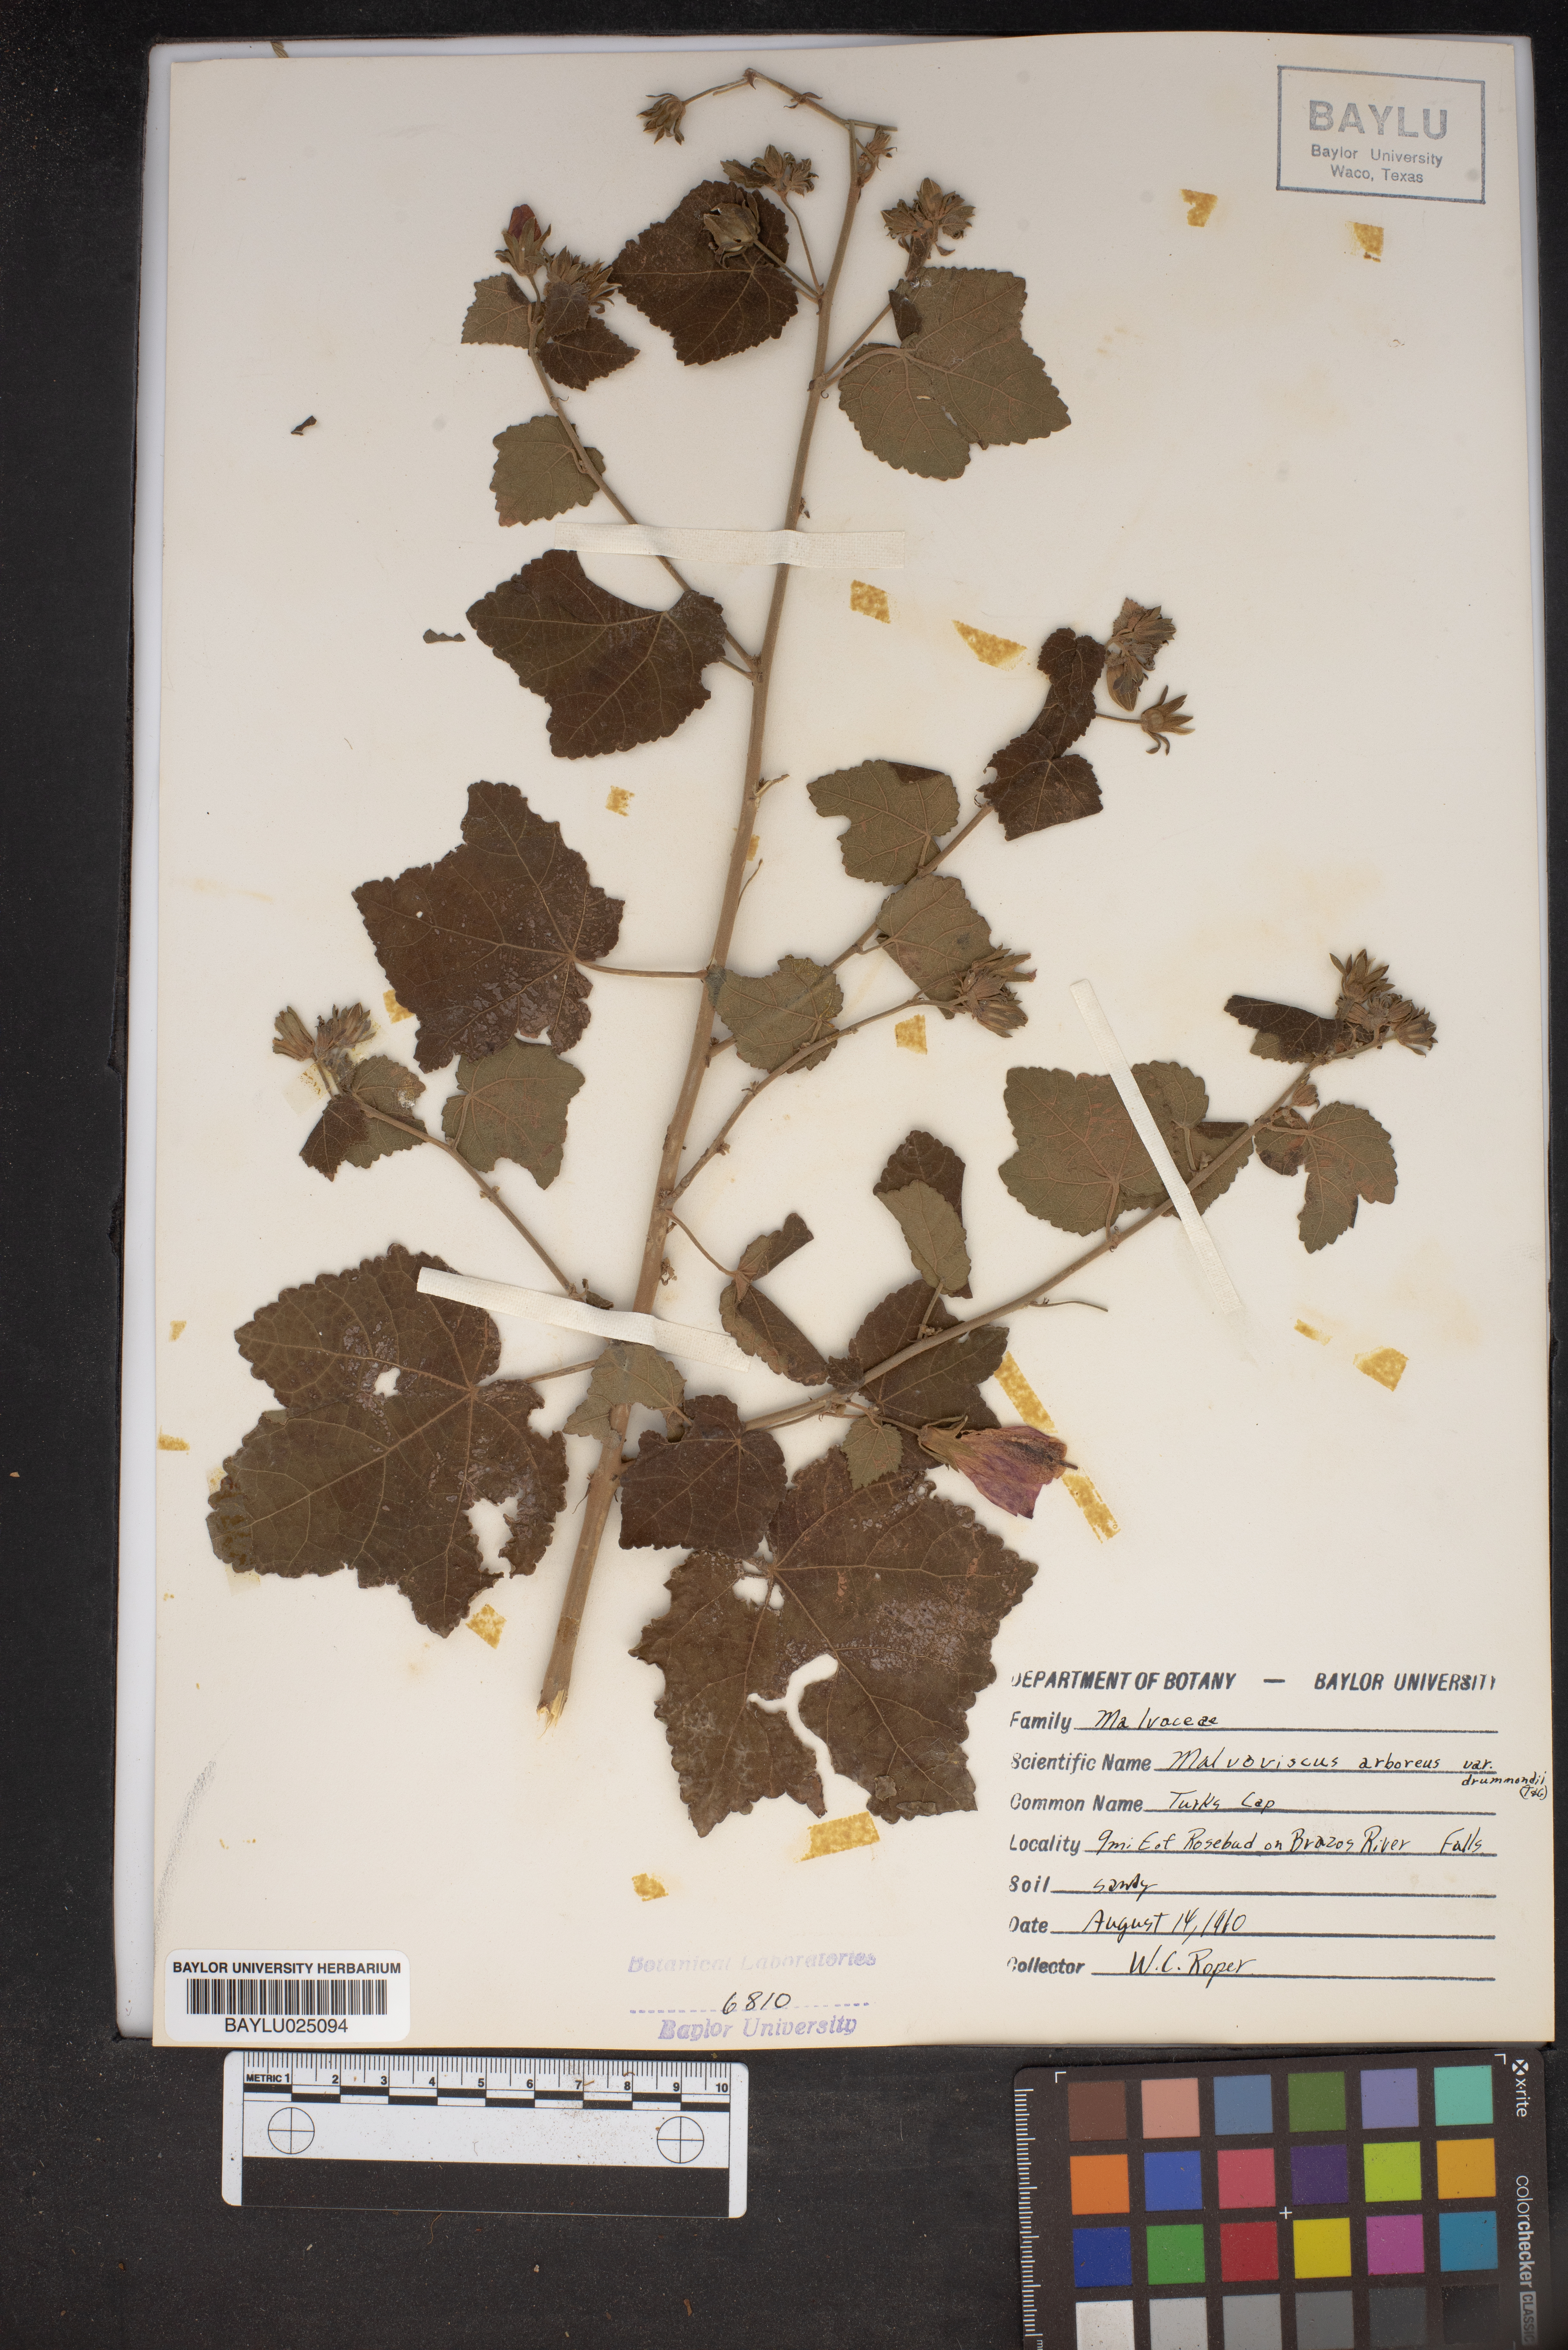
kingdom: Plantae
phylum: Tracheophyta
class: Magnoliopsida
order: Malvales
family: Malvaceae
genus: Malvaviscus
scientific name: Malvaviscus arboreus
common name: Wax mallow
